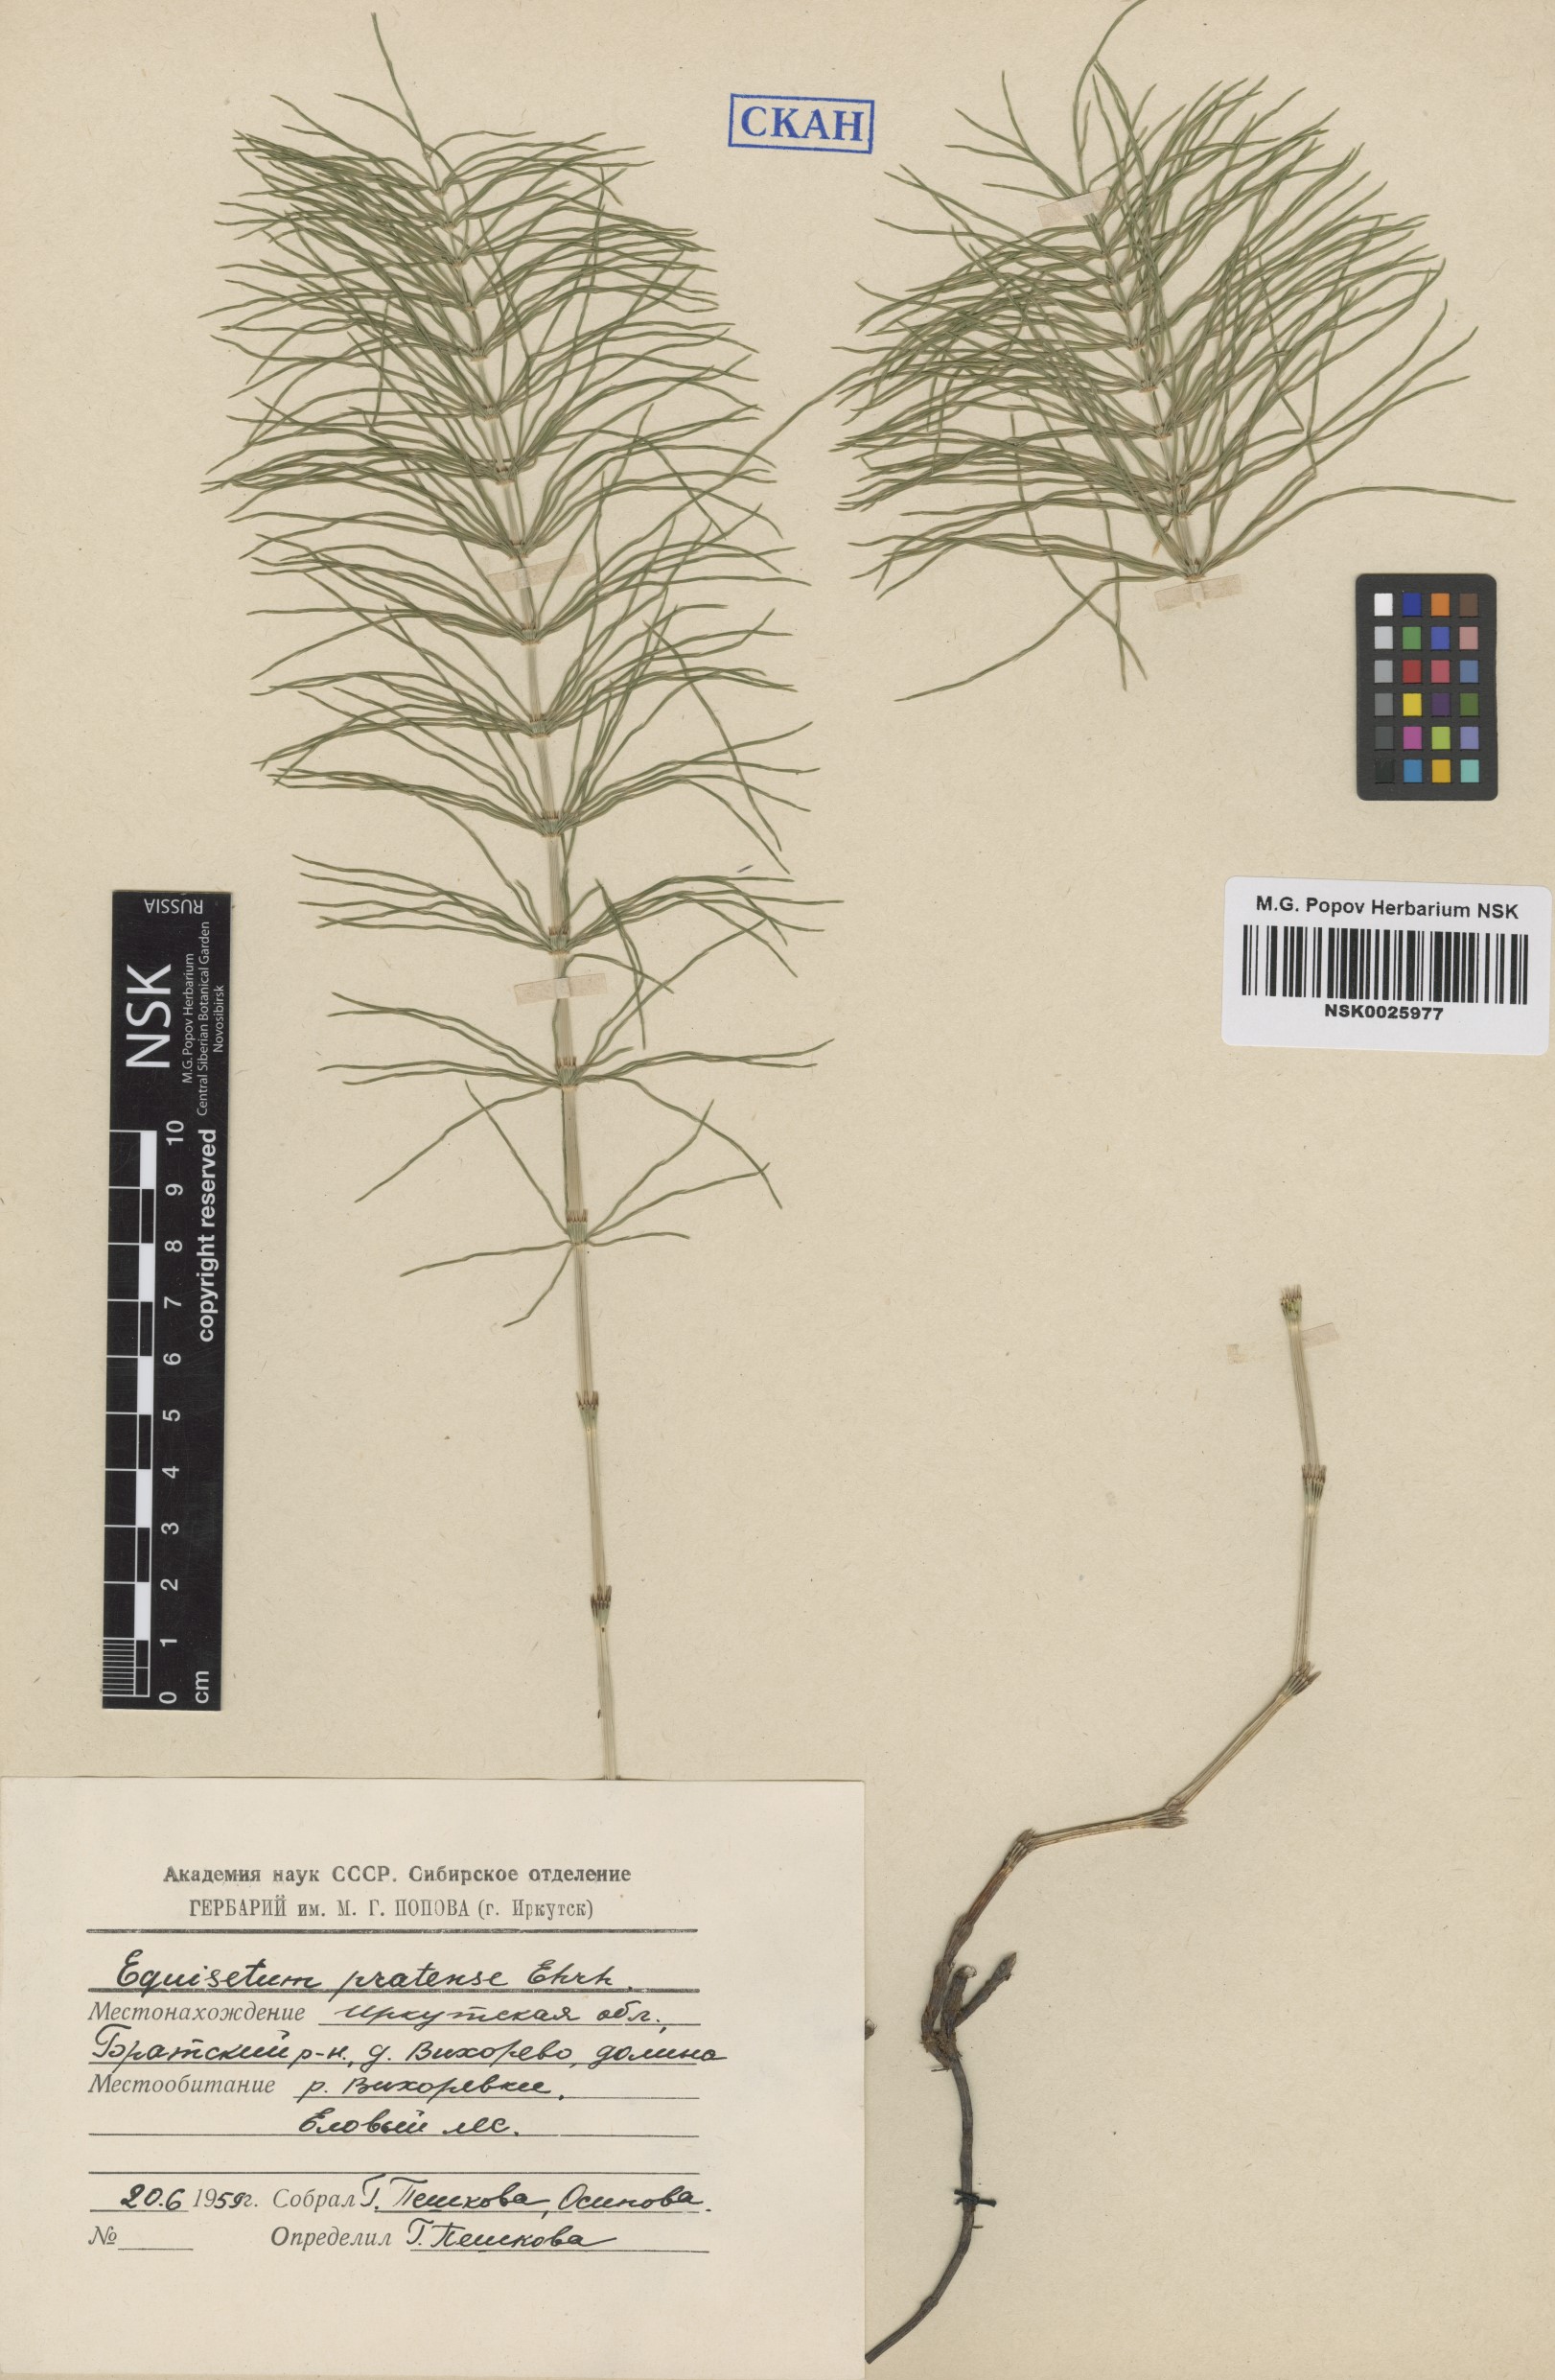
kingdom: Plantae
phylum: Tracheophyta
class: Polypodiopsida
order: Equisetales
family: Equisetaceae
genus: Equisetum
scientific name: Equisetum pratense
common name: Meadow horsetail
